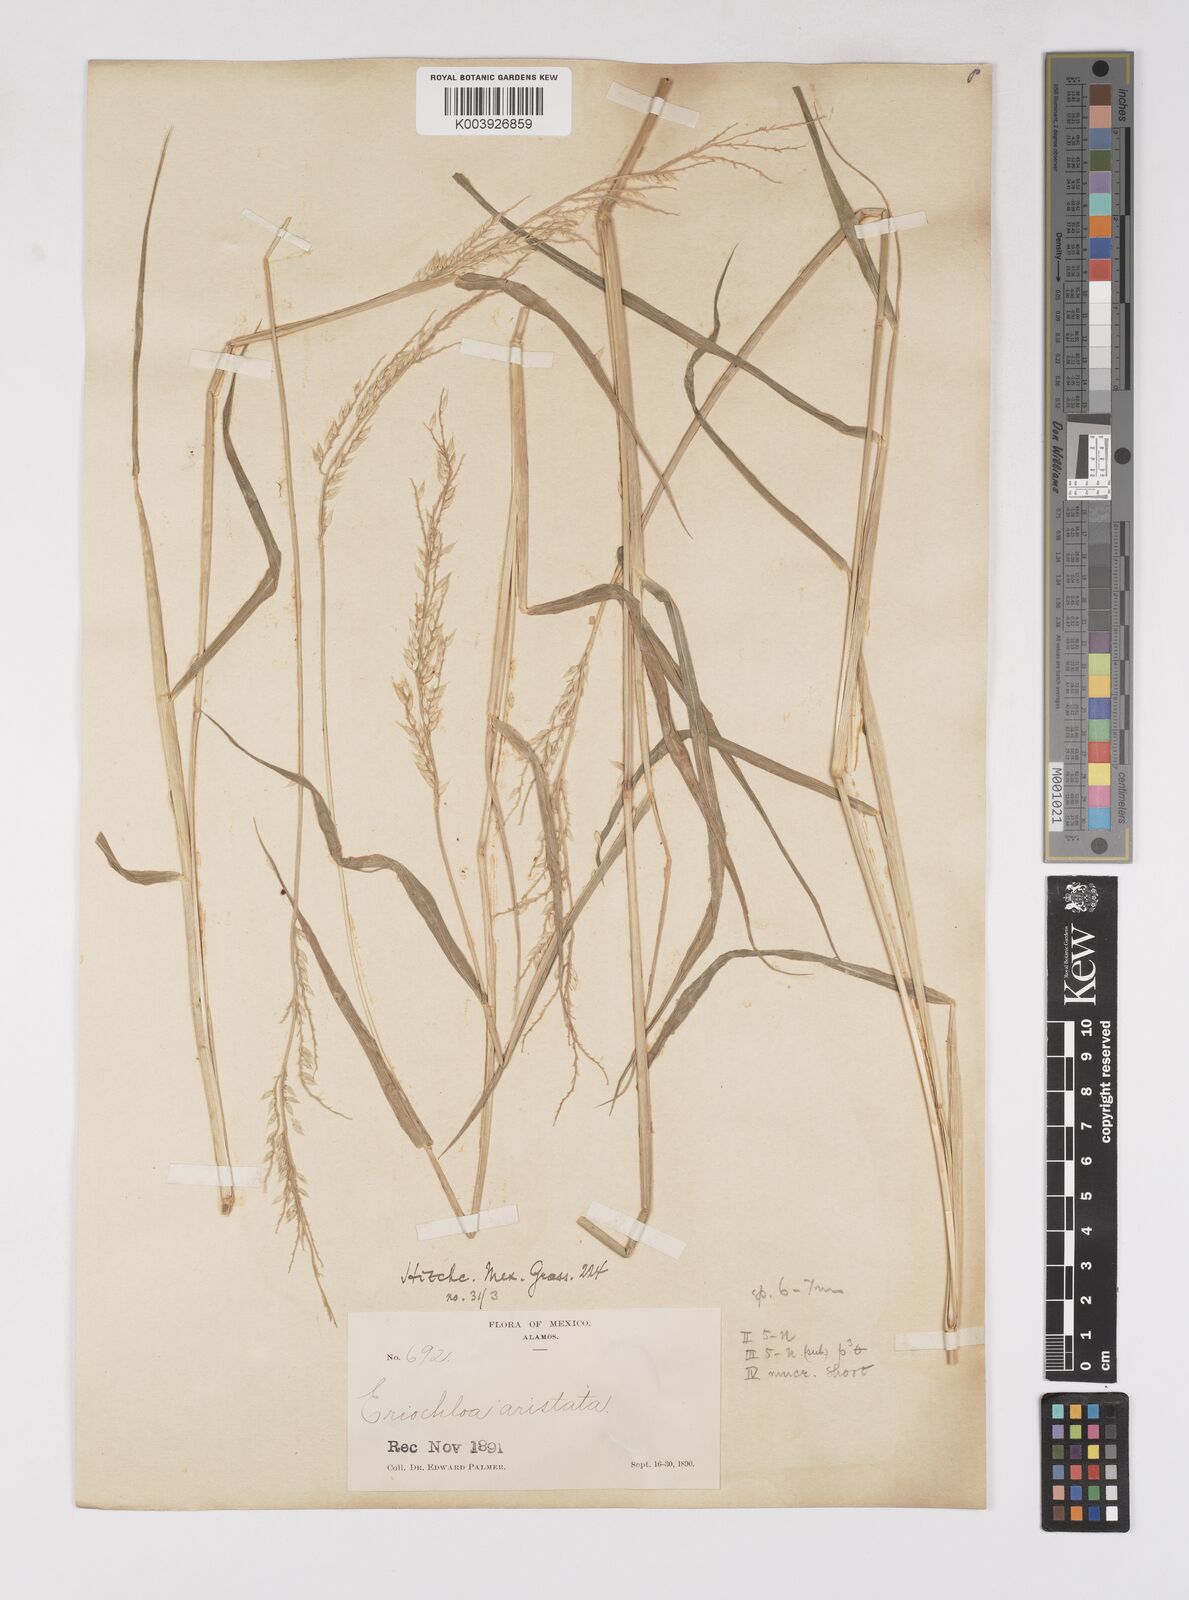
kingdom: Plantae
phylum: Tracheophyta
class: Liliopsida
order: Poales
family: Poaceae
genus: Eriochloa
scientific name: Eriochloa aristata
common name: Bearded cup grass
